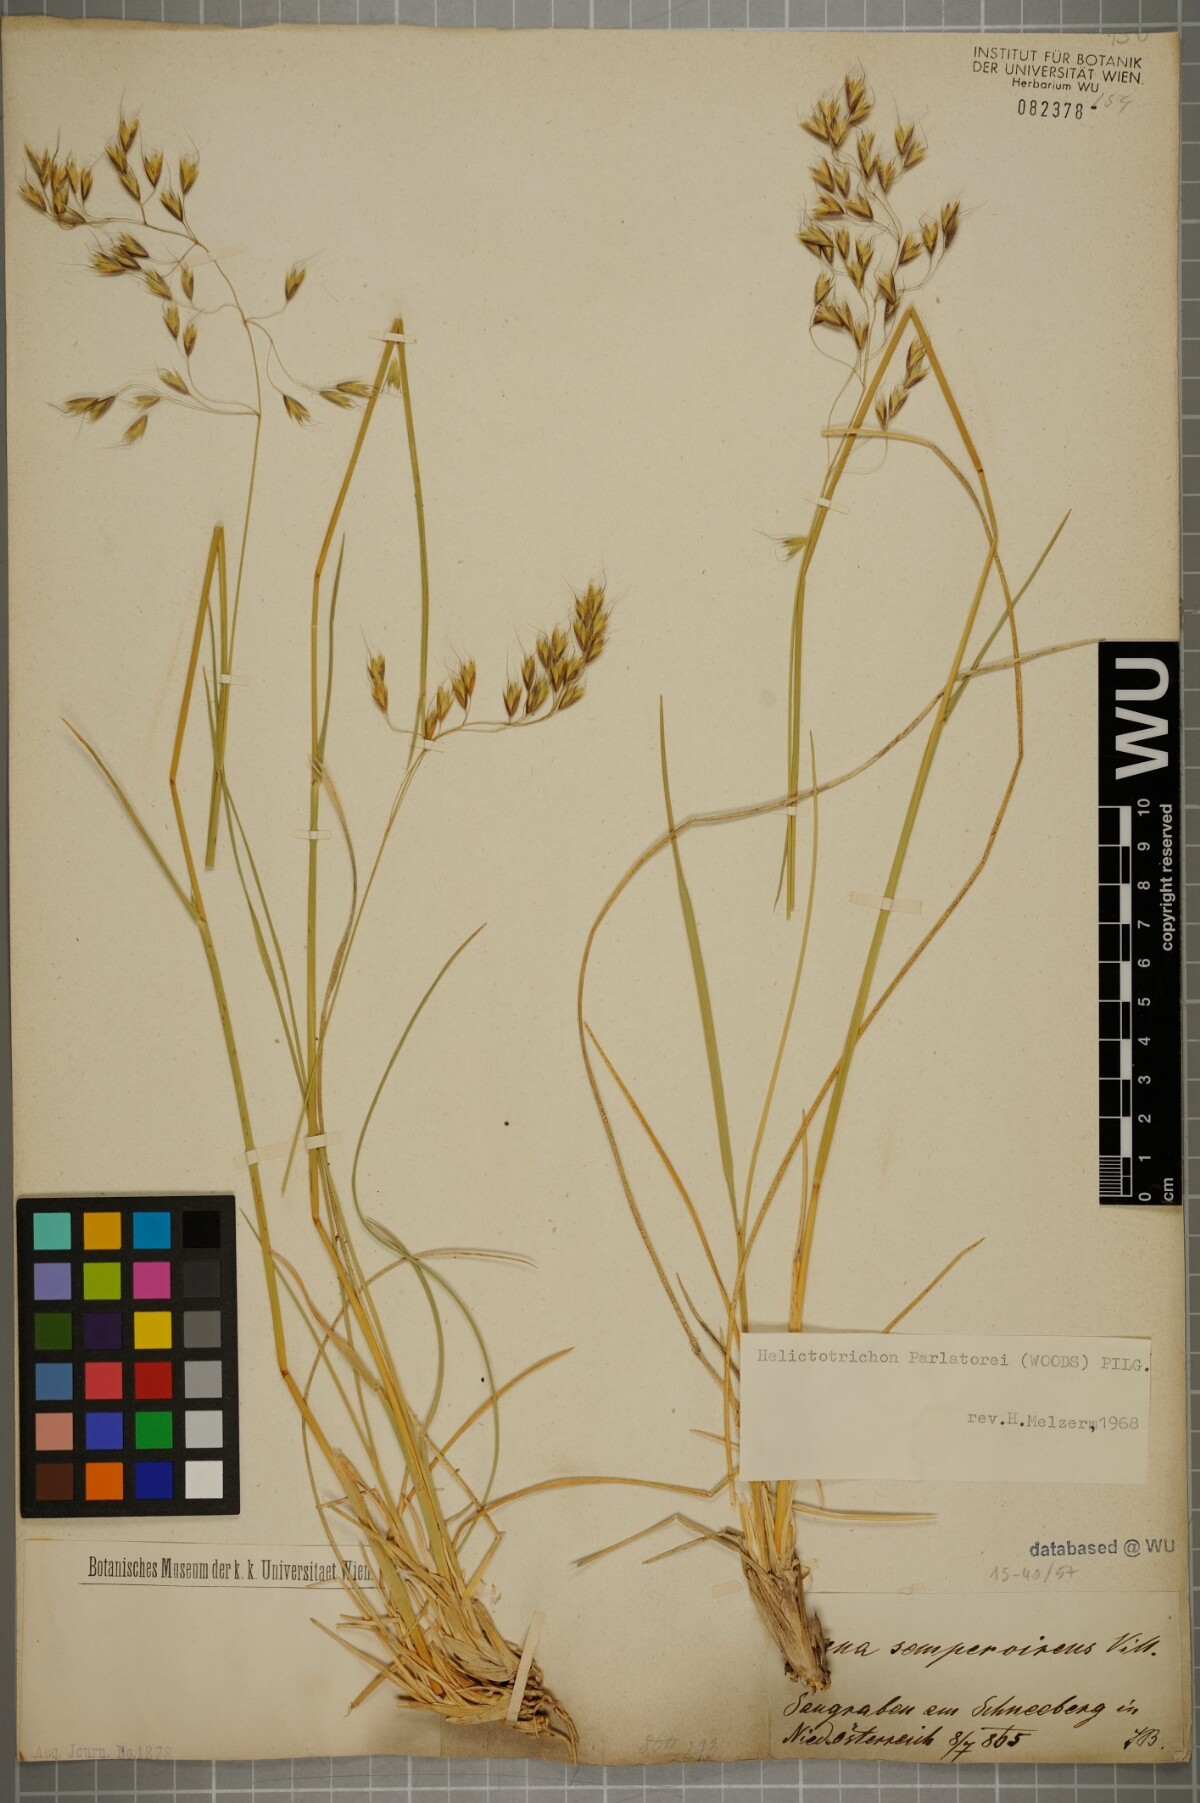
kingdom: Plantae
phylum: Tracheophyta
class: Liliopsida
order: Poales
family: Poaceae
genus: Helictotrichon
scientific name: Helictotrichon parlatorei
